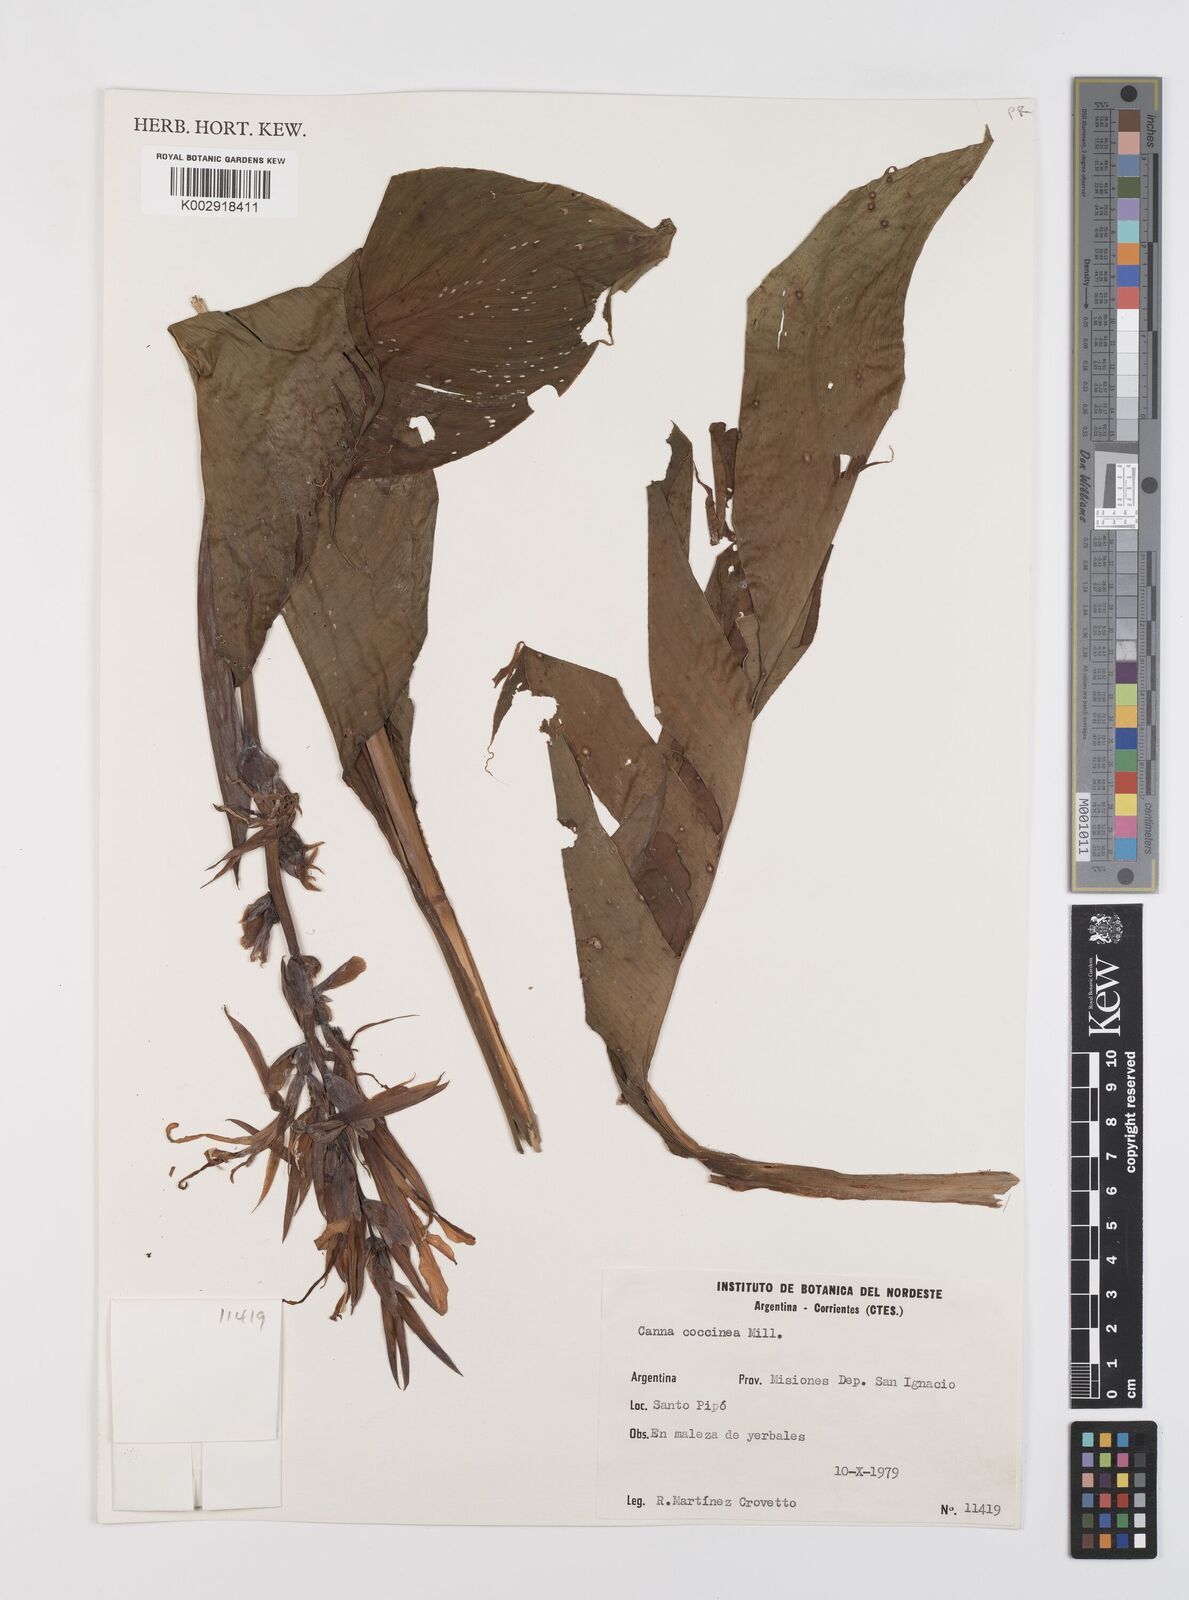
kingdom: Plantae
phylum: Tracheophyta
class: Liliopsida
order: Zingiberales
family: Cannaceae
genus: Canna
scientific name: Canna indica
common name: Indian shot
